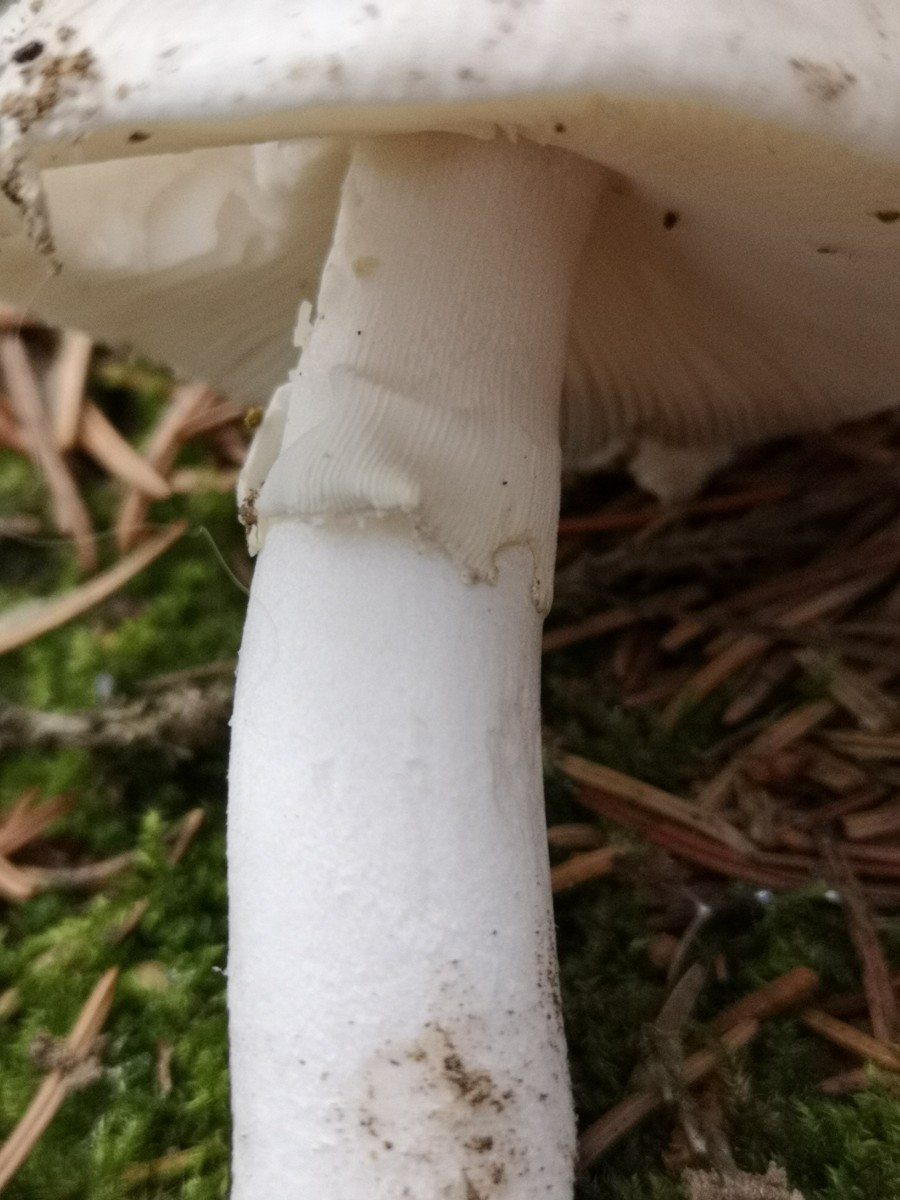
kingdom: Fungi
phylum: Basidiomycota
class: Agaricomycetes
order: Agaricales
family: Amanitaceae
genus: Amanita
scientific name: Amanita
